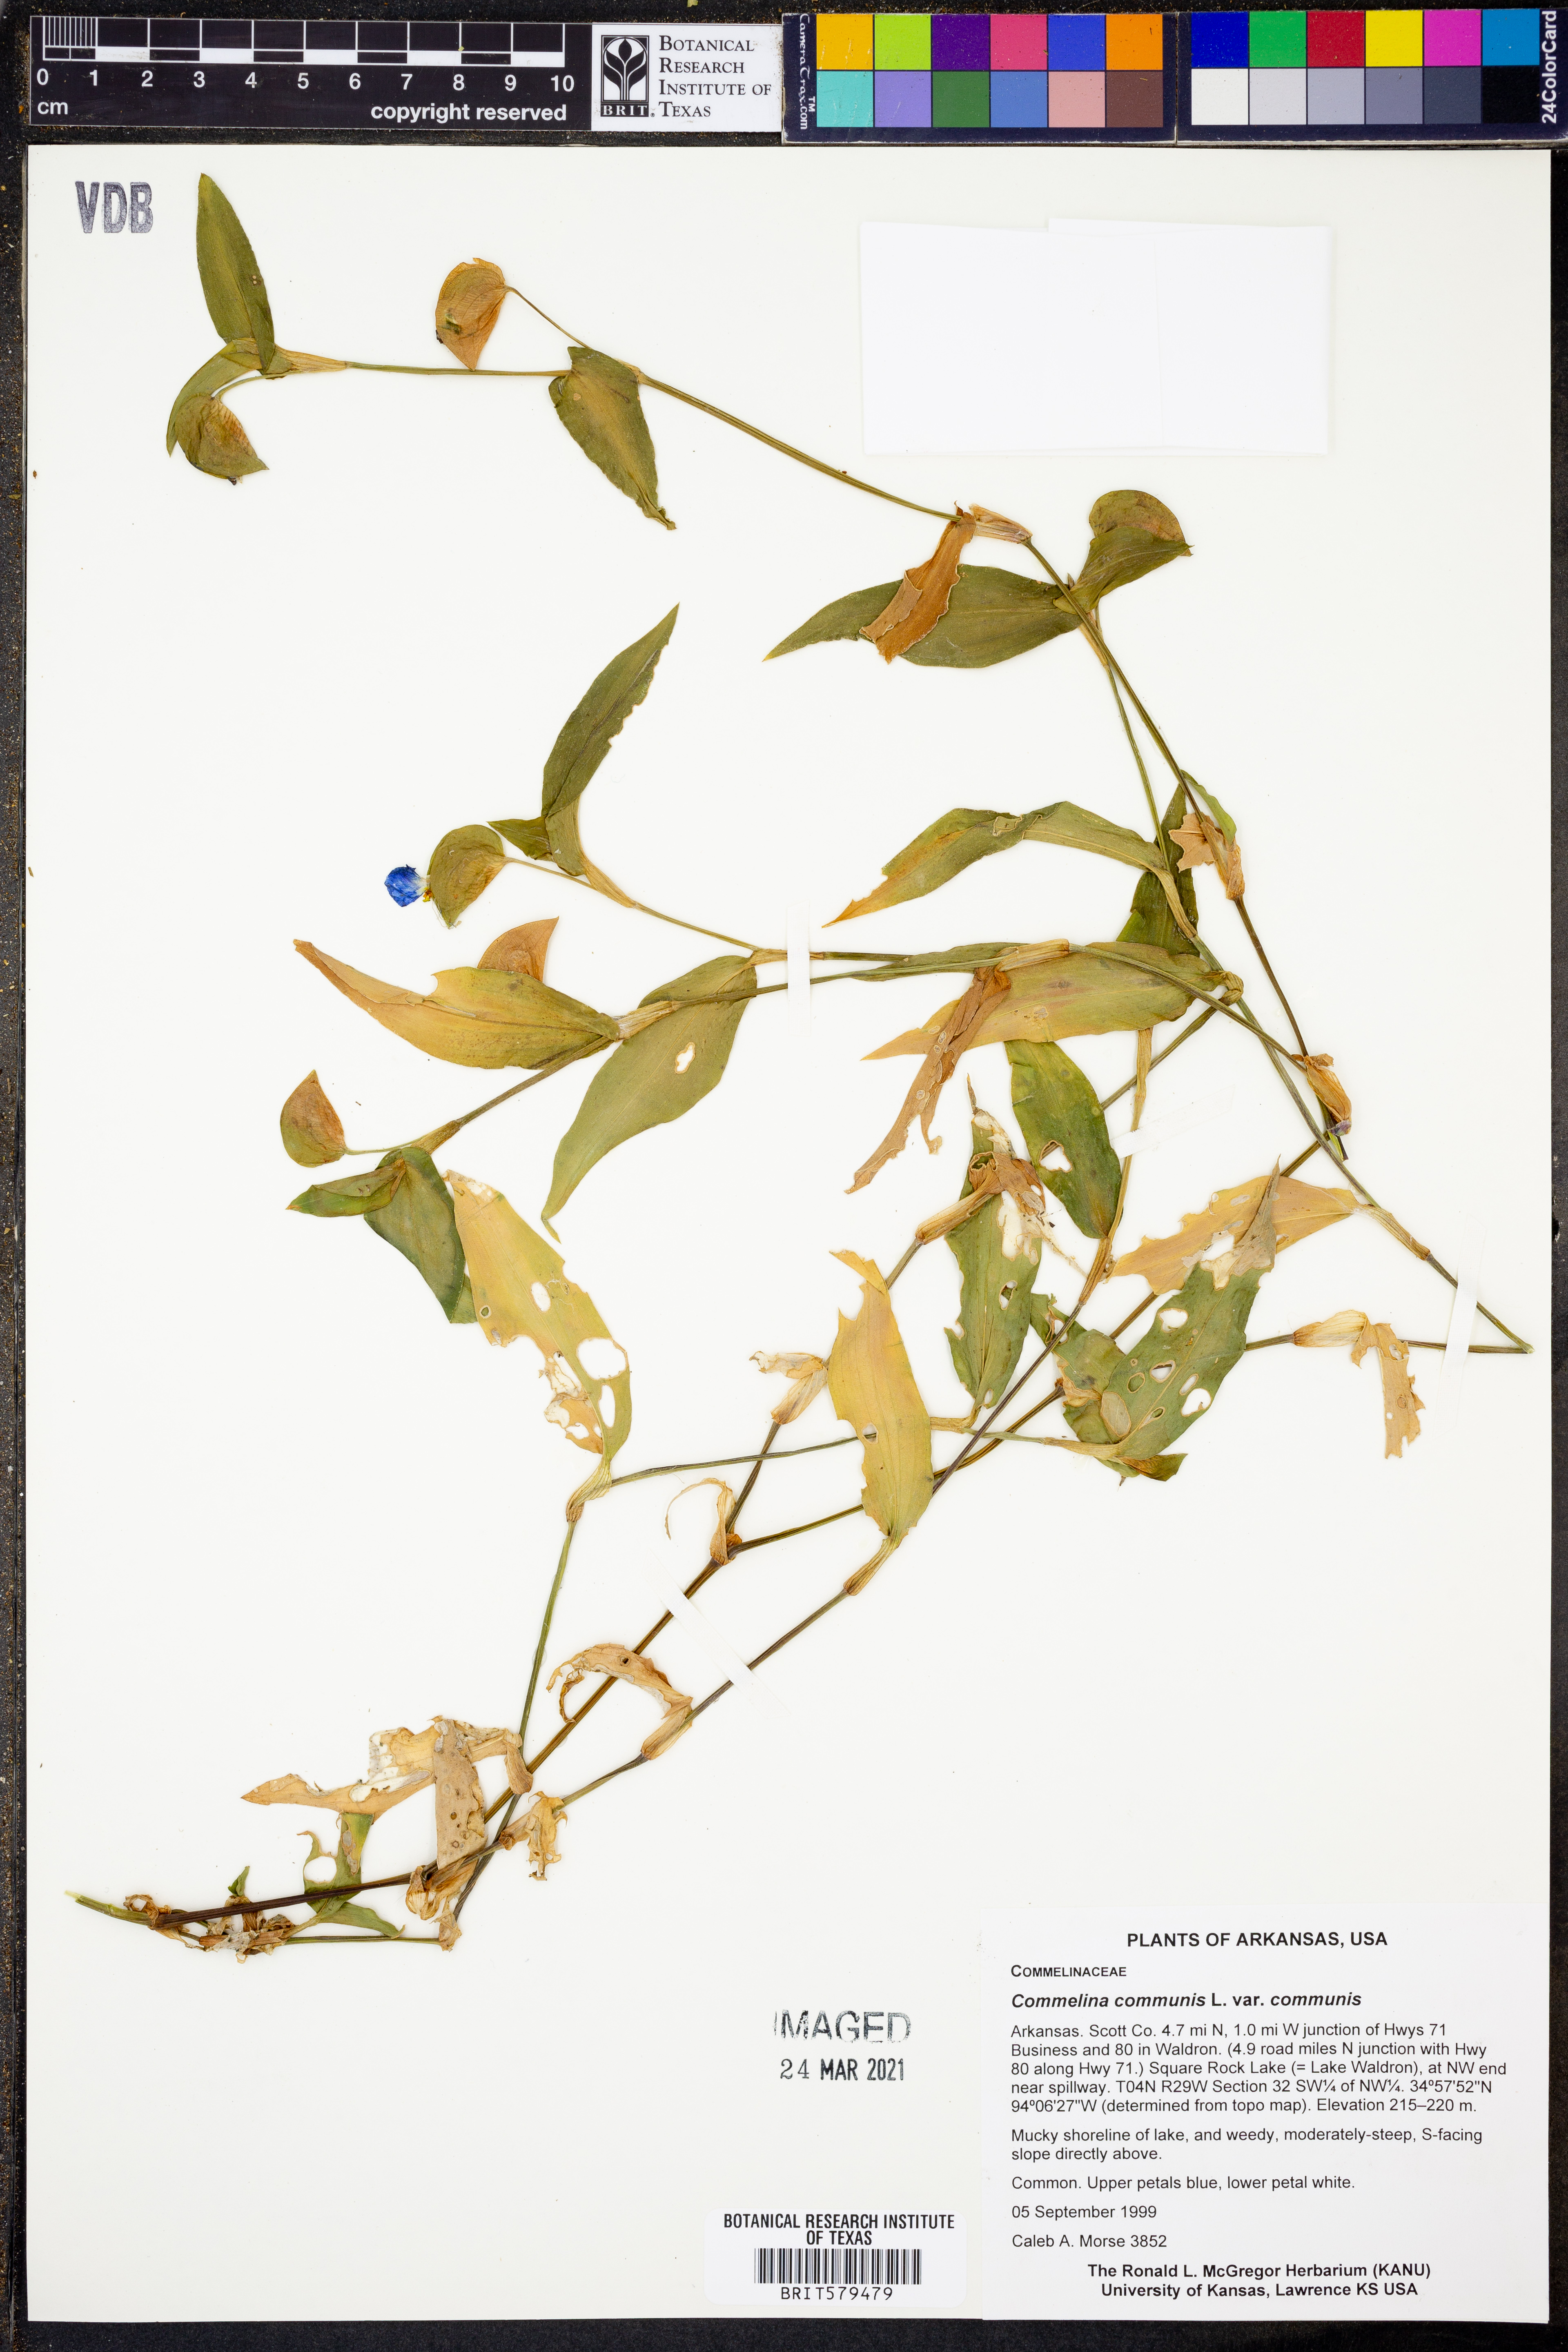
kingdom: Plantae
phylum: Tracheophyta
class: Liliopsida
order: Commelinales
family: Commelinaceae
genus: Commelina
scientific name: Commelina communis
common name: Asiatic dayflower
